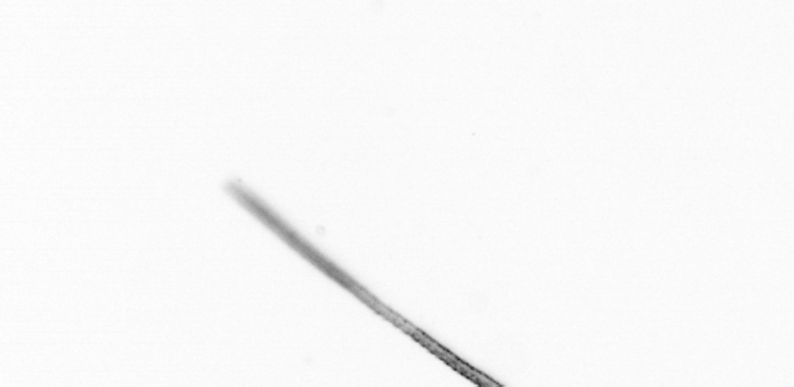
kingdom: Chromista
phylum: Ochrophyta
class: Bacillariophyceae
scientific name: Bacillariophyceae
